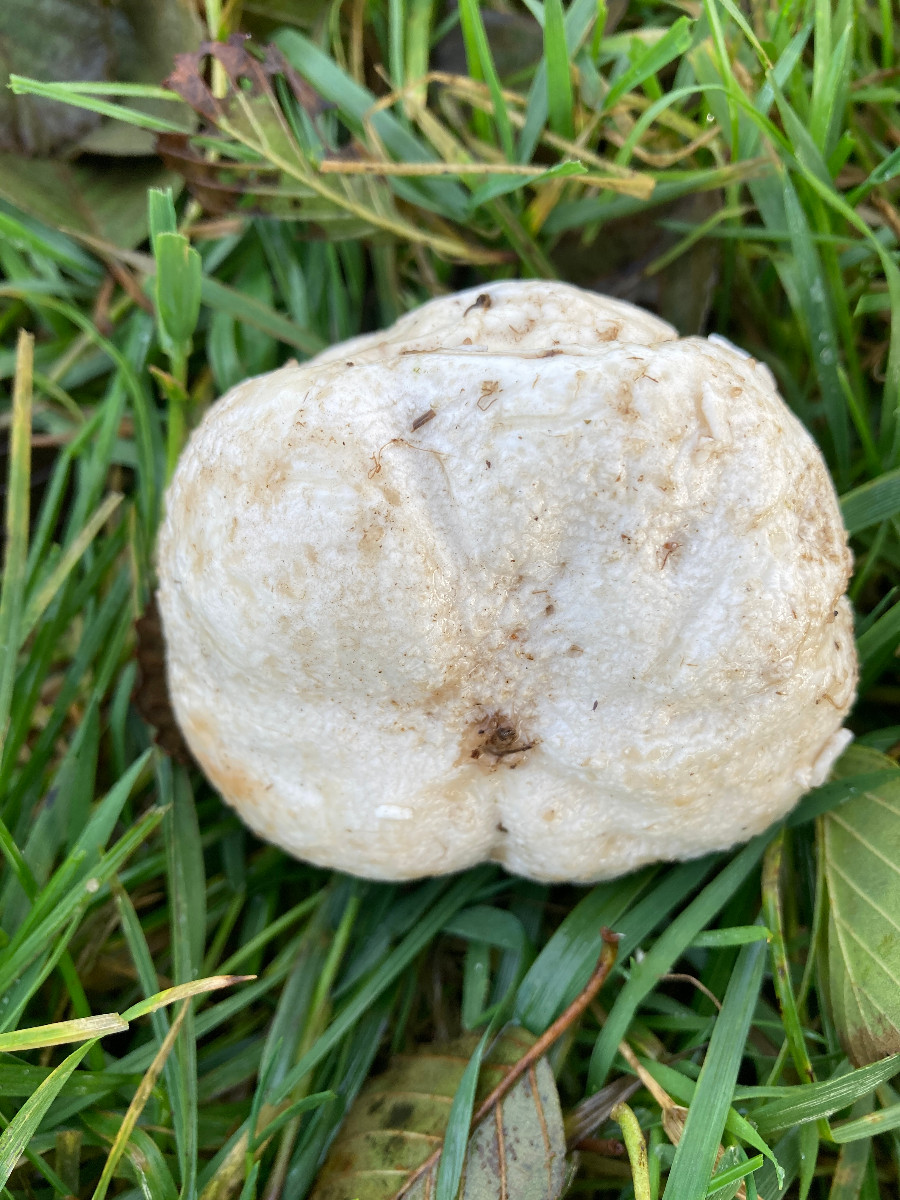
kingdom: Fungi
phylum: Basidiomycota
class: Agaricomycetes
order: Agaricales
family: Lycoperdaceae
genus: Bovista
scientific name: Bovista
